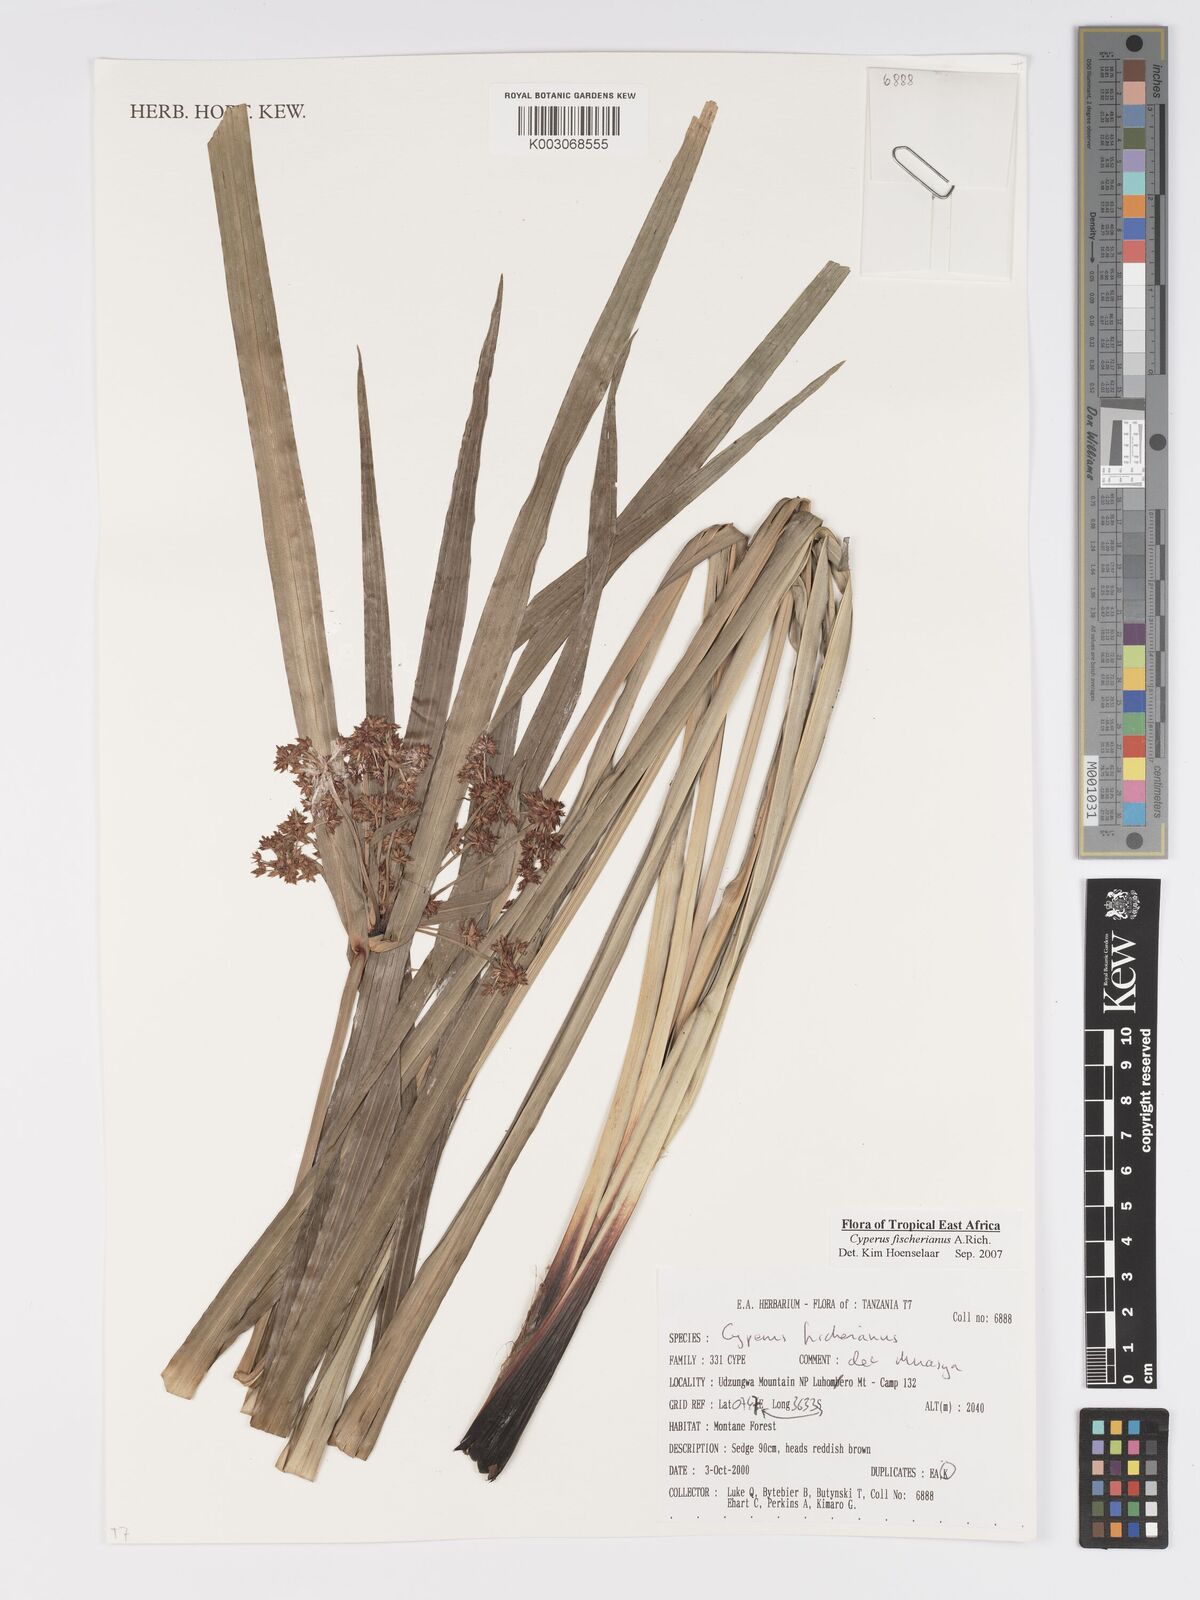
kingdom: Plantae
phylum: Tracheophyta
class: Liliopsida
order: Poales
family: Cyperaceae
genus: Cyperus
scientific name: Cyperus fischerianus
